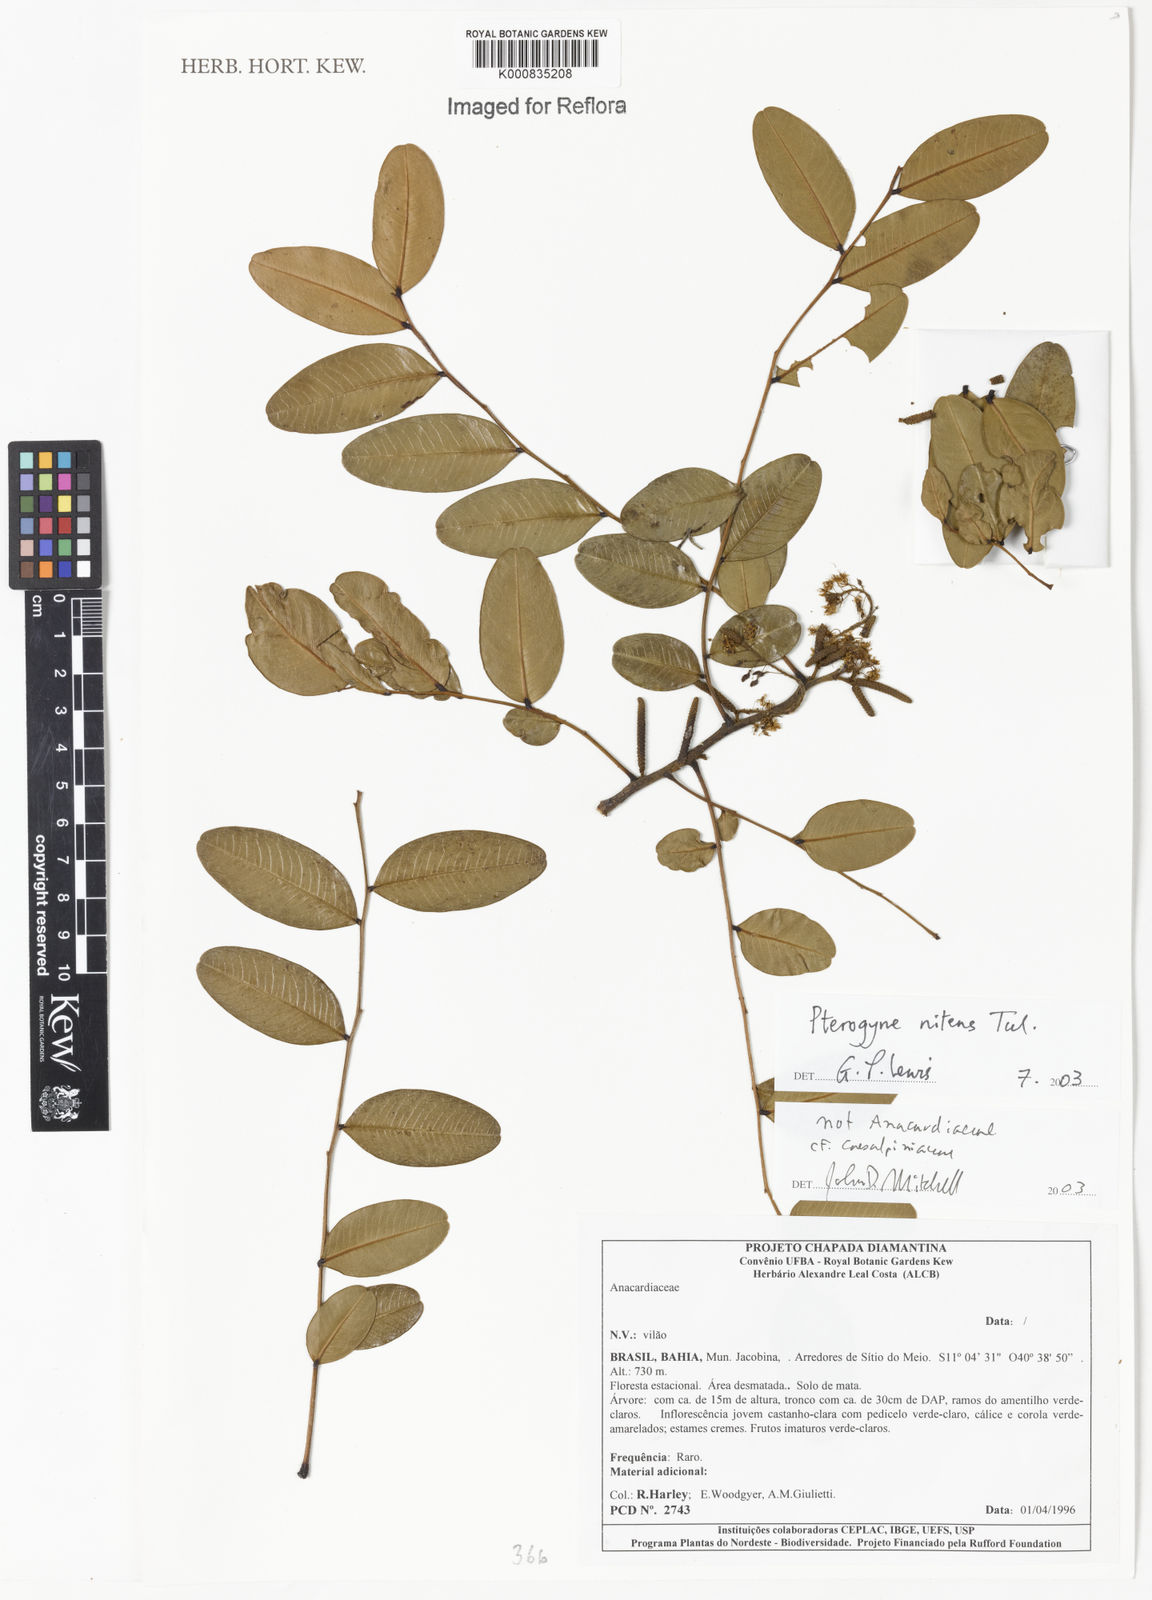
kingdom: Plantae
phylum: Tracheophyta
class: Magnoliopsida
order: Fabales
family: Fabaceae
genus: Pterogyne
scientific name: Pterogyne nitens
